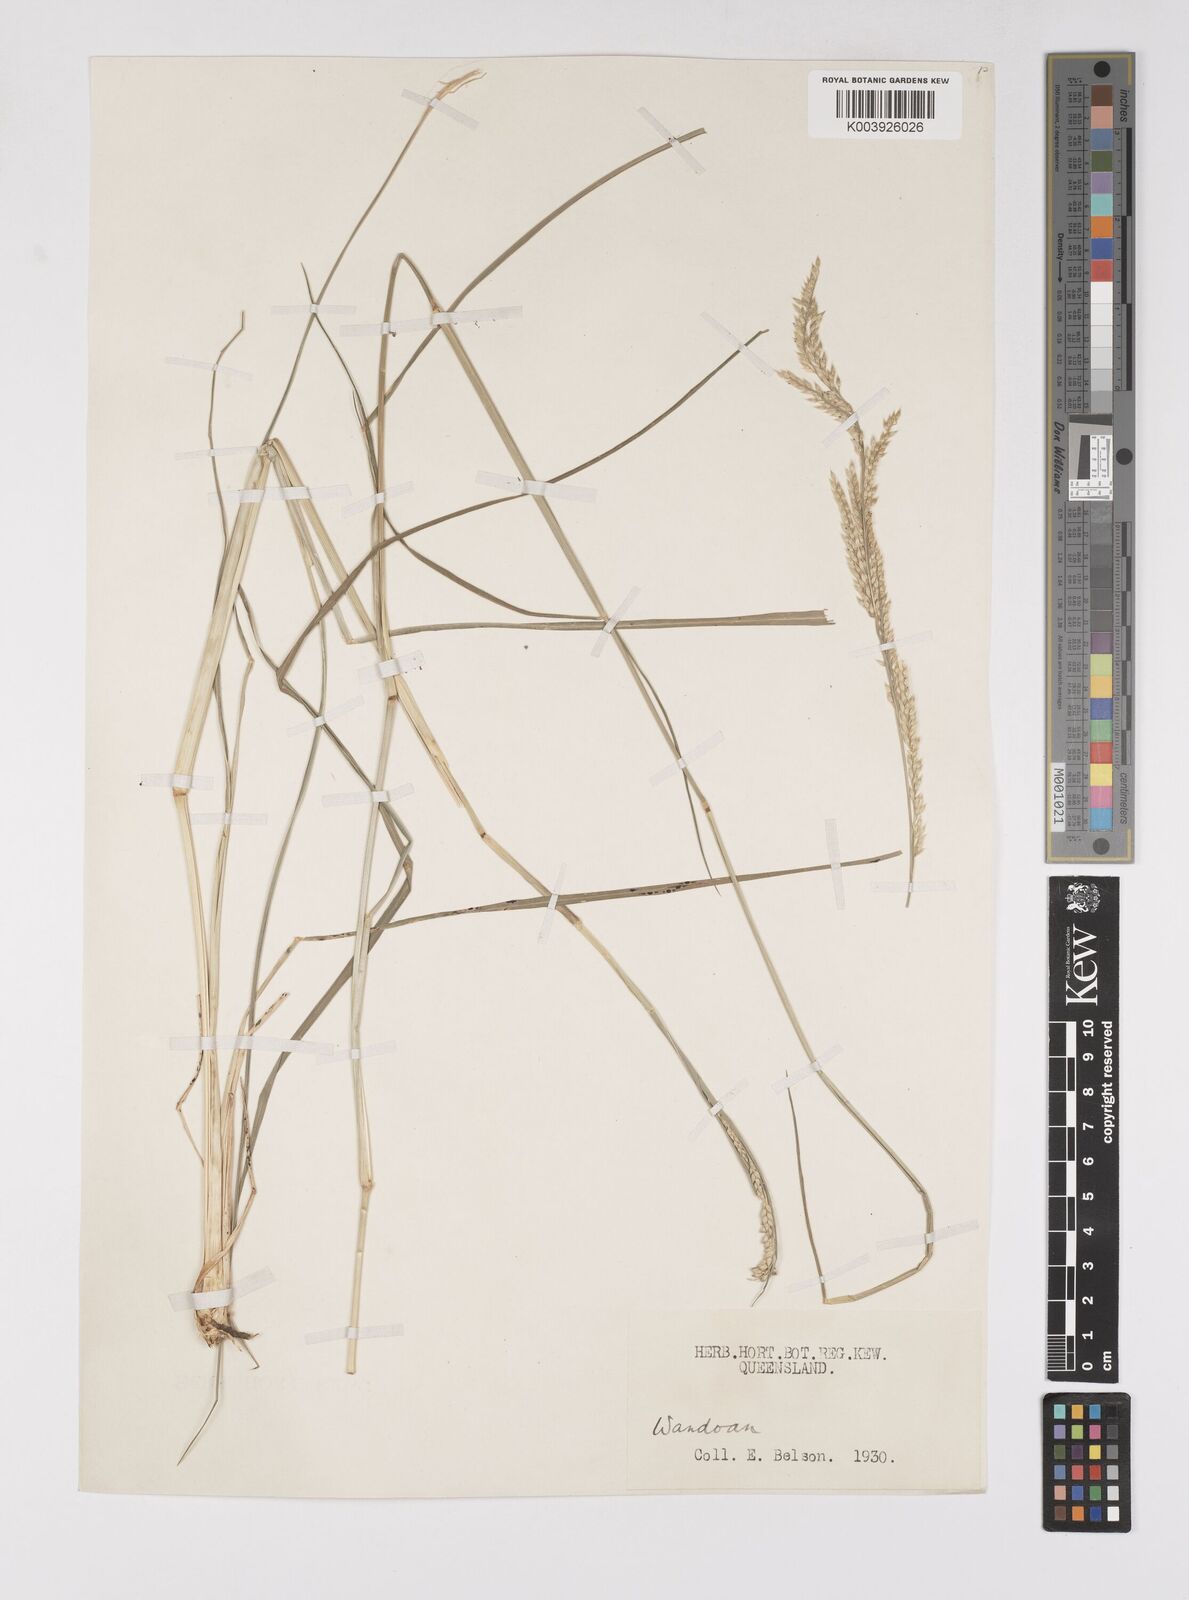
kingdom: Plantae
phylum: Tracheophyta
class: Liliopsida
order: Poales
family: Poaceae
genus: Eriochloa
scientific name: Eriochloa
